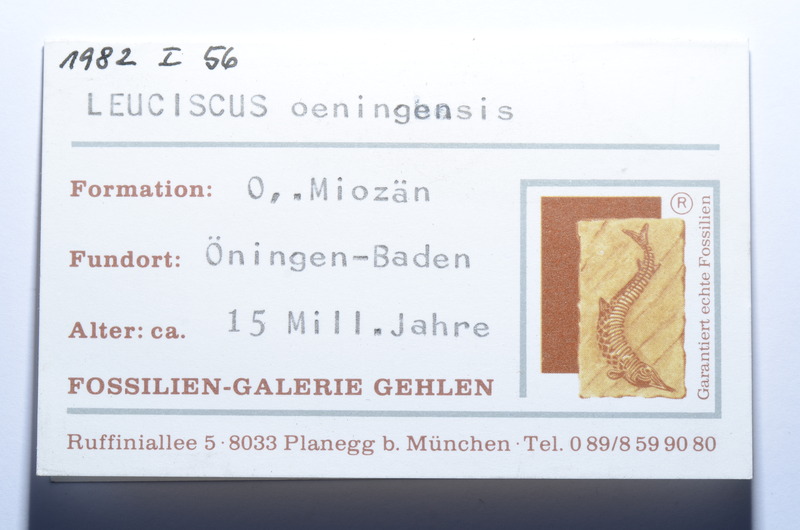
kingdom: Animalia
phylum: Chordata
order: Cypriniformes
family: Cyprinidae
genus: Leuciscus
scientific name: Leuciscus oeningensis
